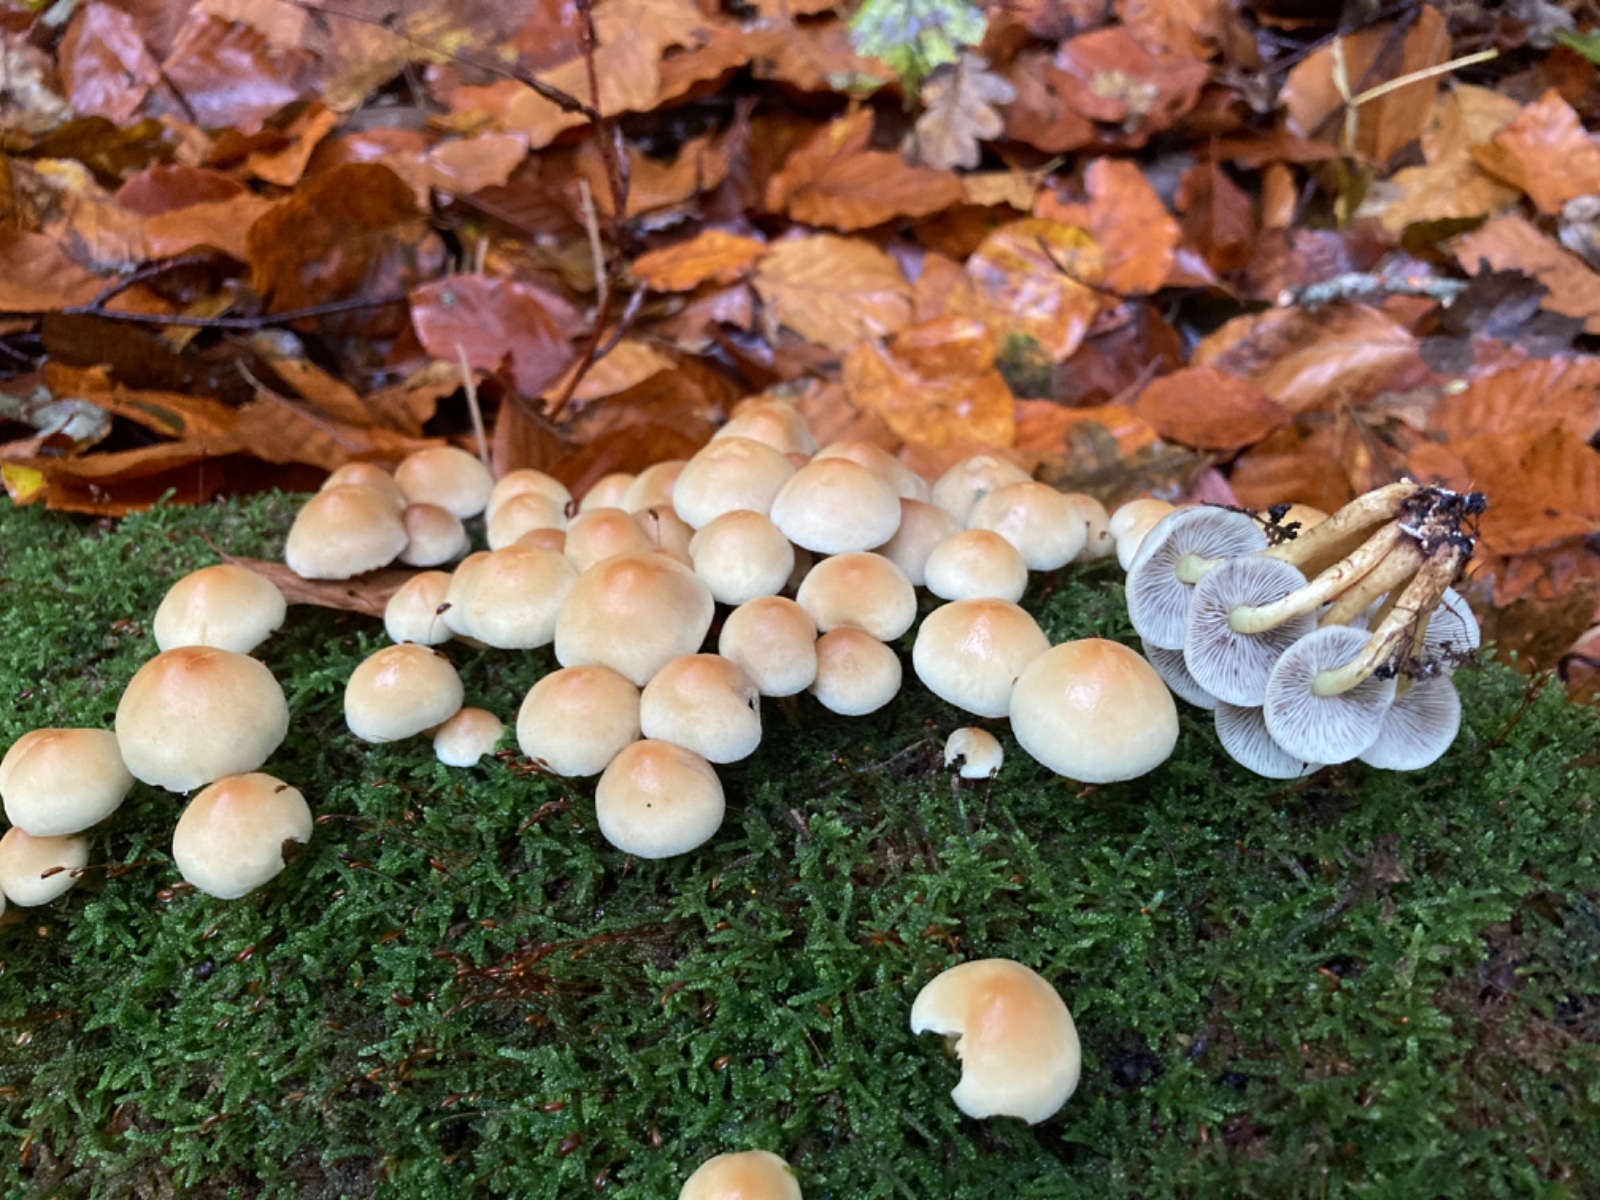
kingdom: Fungi
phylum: Basidiomycota
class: Agaricomycetes
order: Agaricales
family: Strophariaceae
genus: Hypholoma
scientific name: Hypholoma fasciculare
